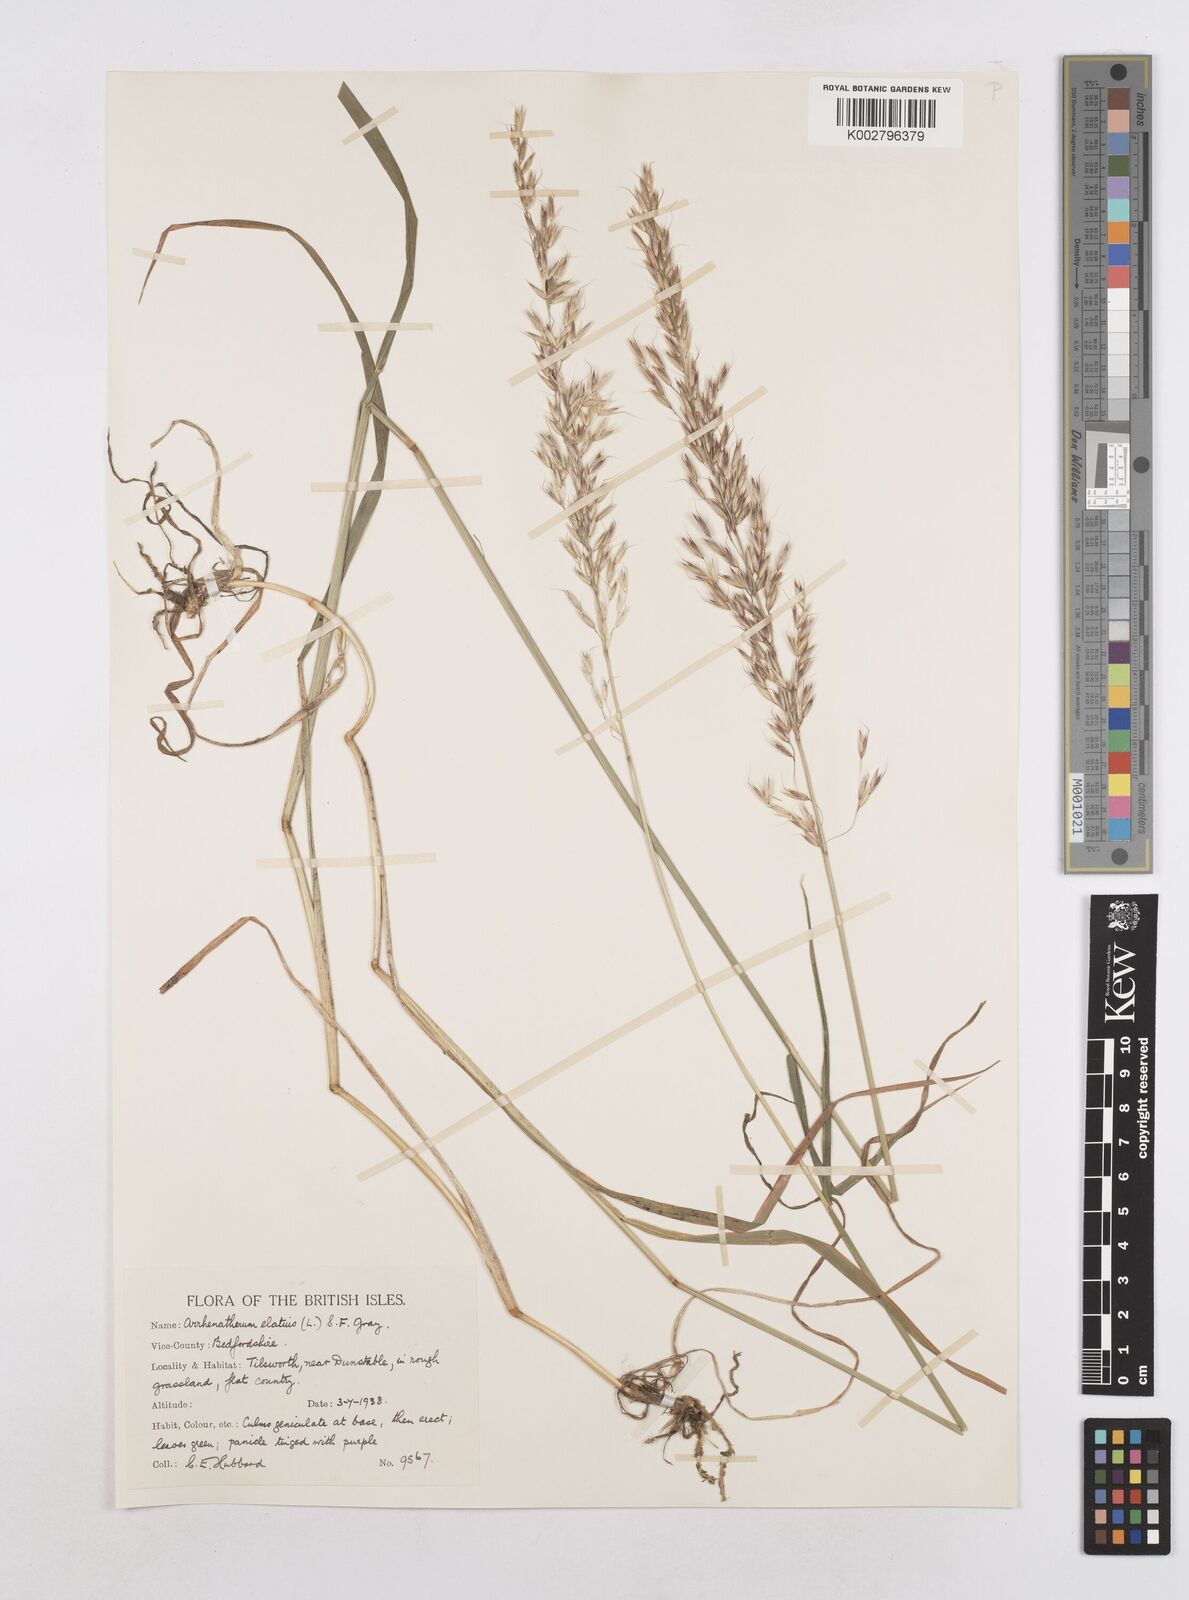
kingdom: Plantae
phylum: Tracheophyta
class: Liliopsida
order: Poales
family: Poaceae
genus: Arrhenatherum
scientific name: Arrhenatherum elatius
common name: Tall oatgrass
